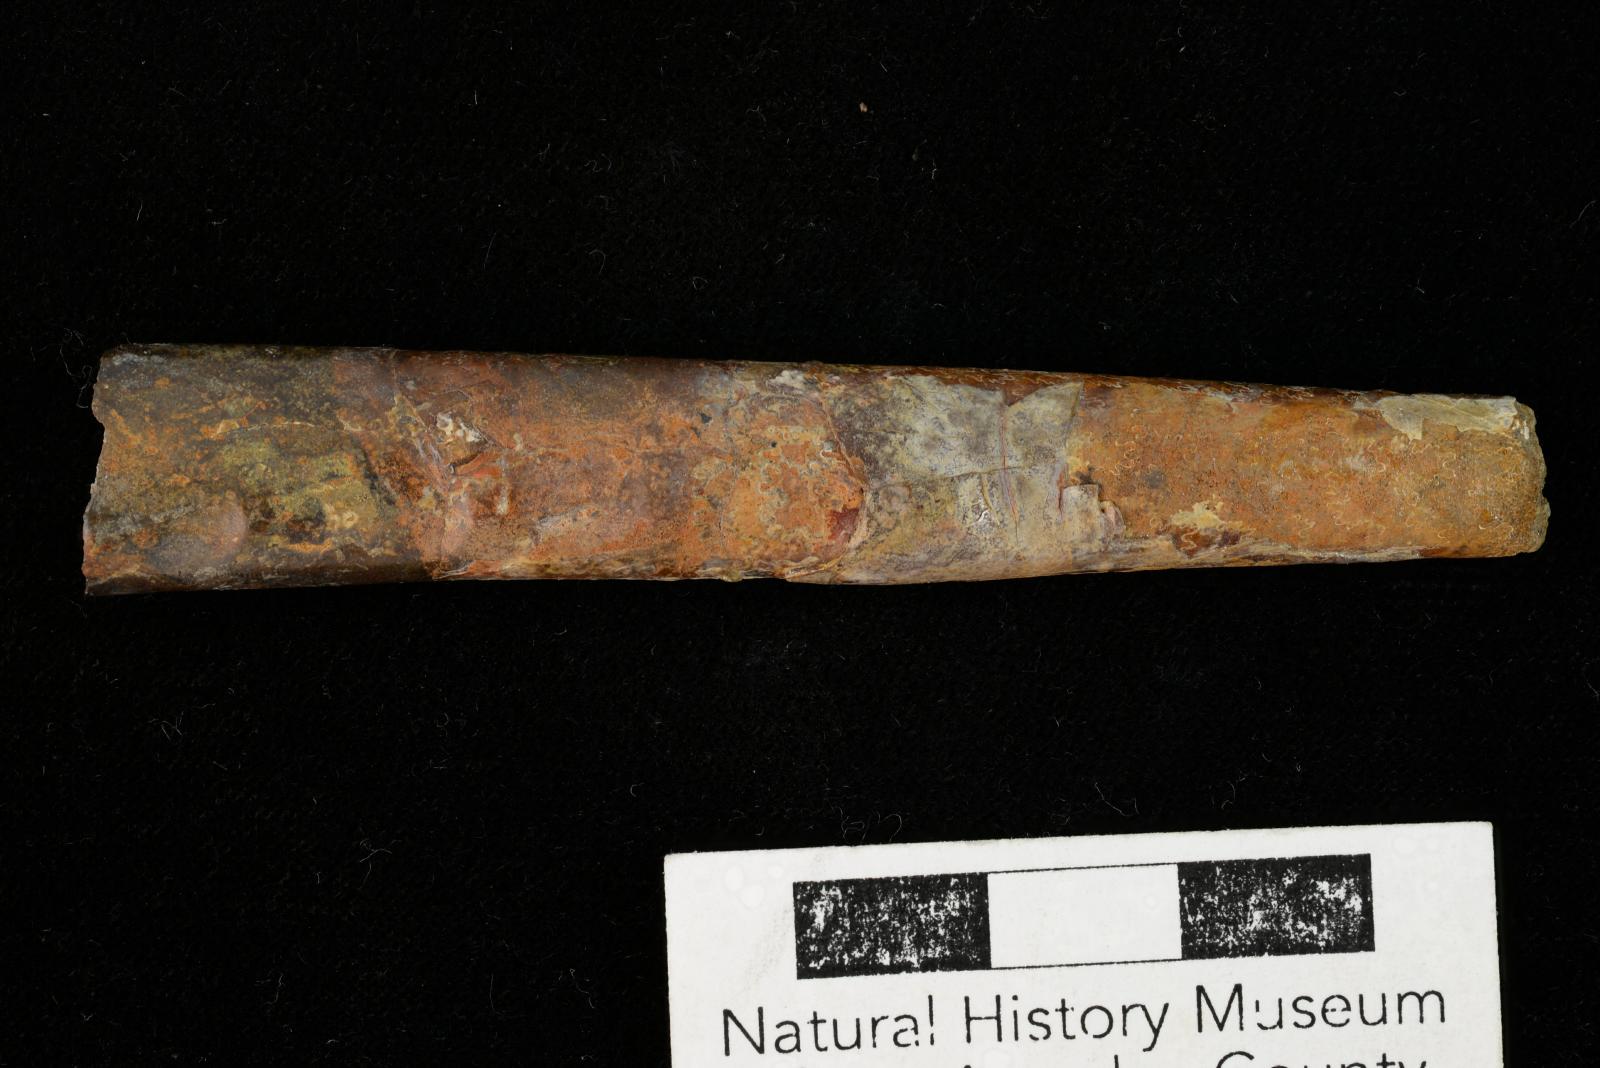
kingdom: Animalia
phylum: Mollusca
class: Cephalopoda
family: Baculitidae
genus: Baculites
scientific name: Baculites boulei
